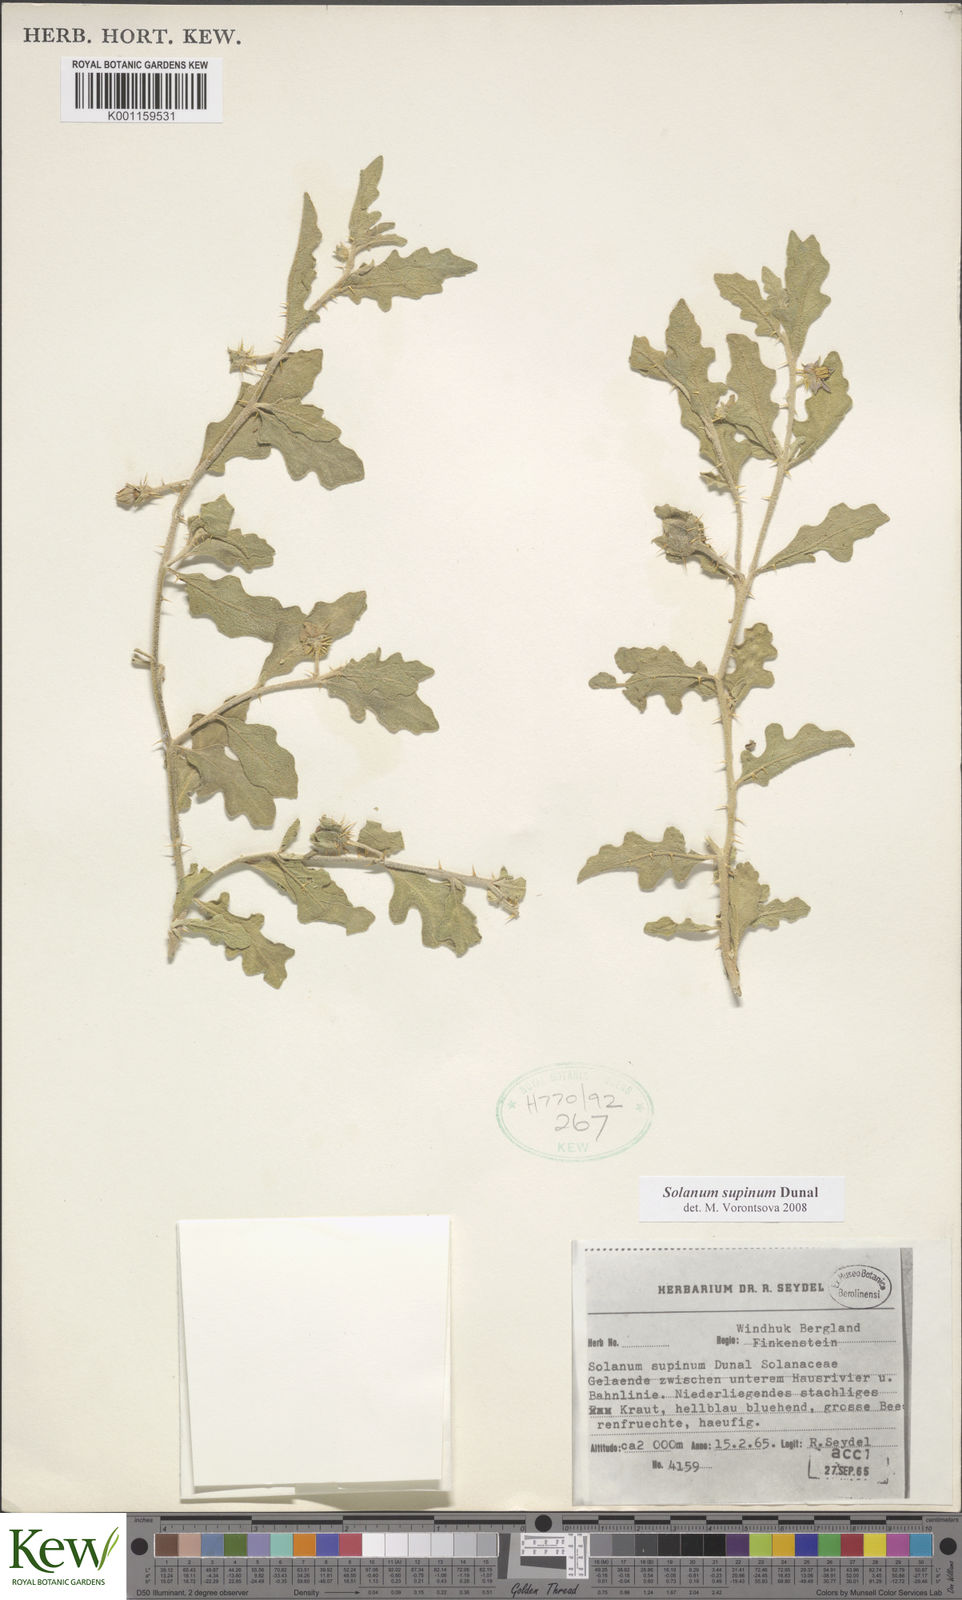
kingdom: Plantae
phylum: Tracheophyta
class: Magnoliopsida
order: Solanales
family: Solanaceae
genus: Solanum
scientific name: Solanum supinum
